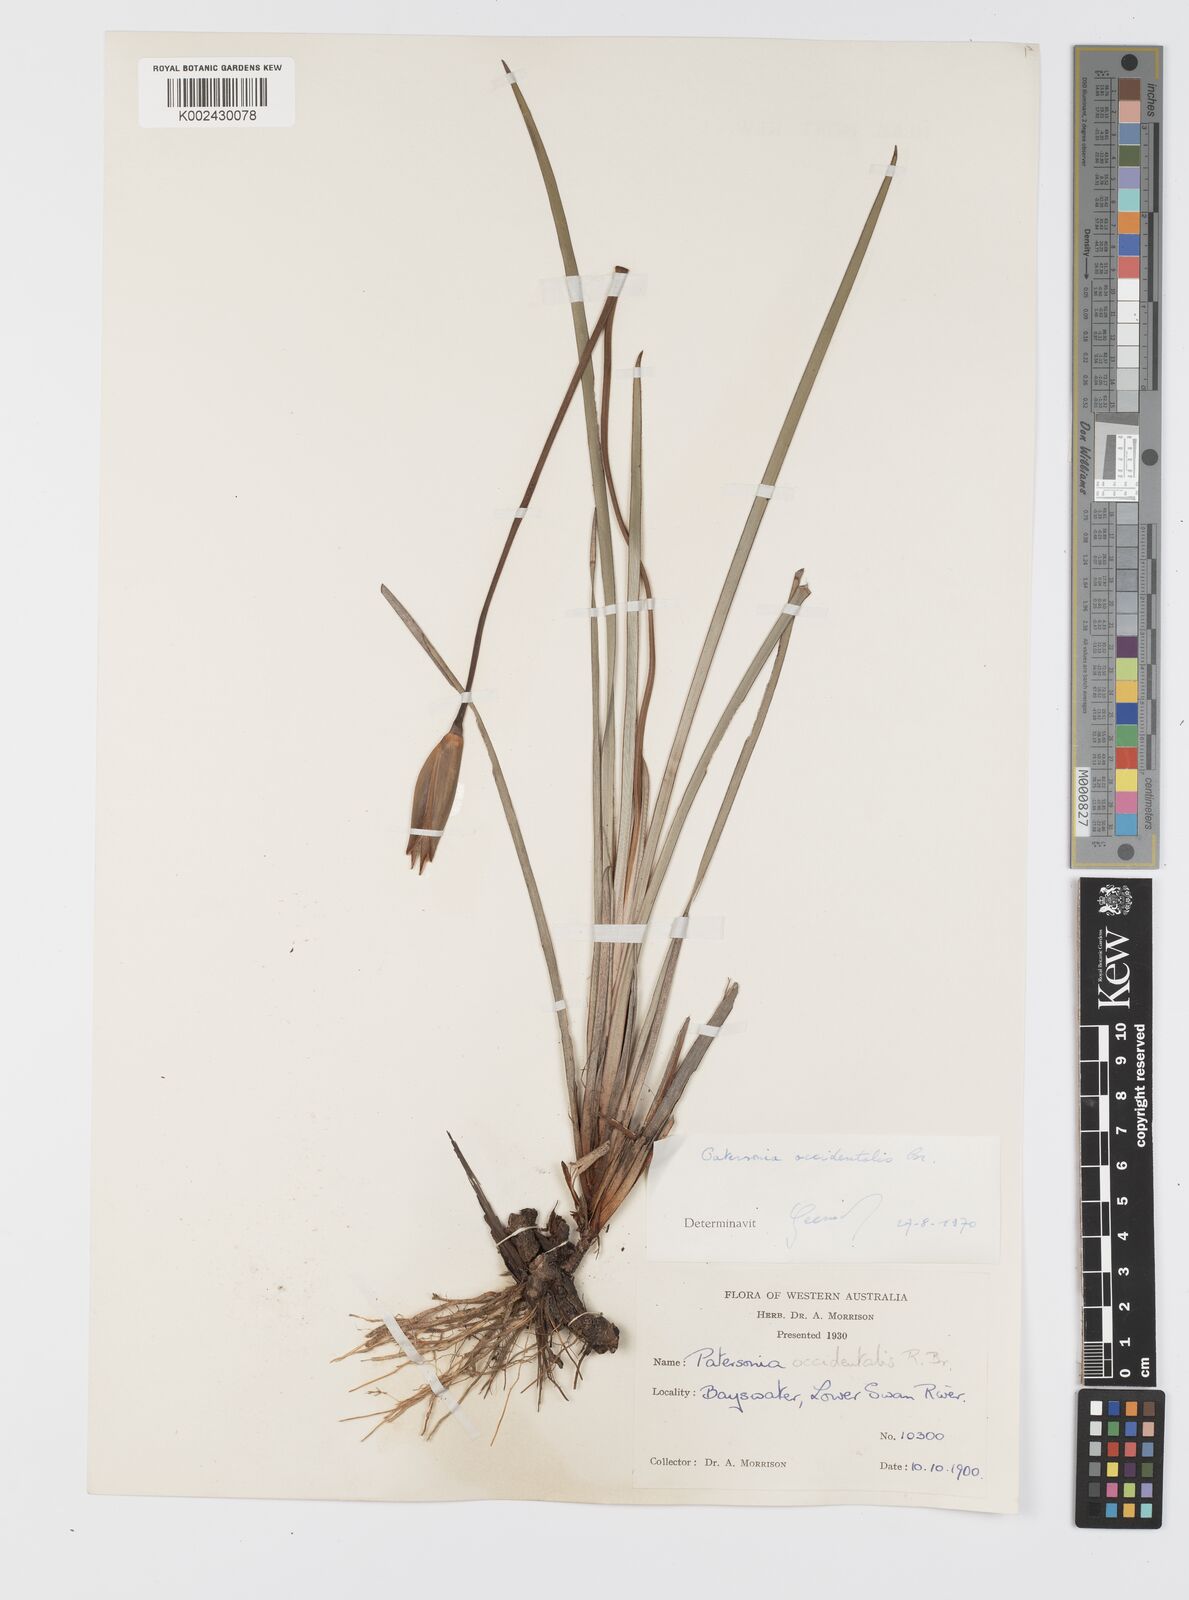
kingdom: Plantae
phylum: Tracheophyta
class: Liliopsida
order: Asparagales
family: Iridaceae
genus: Patersonia
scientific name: Patersonia occidentalis
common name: Long purple-flag
